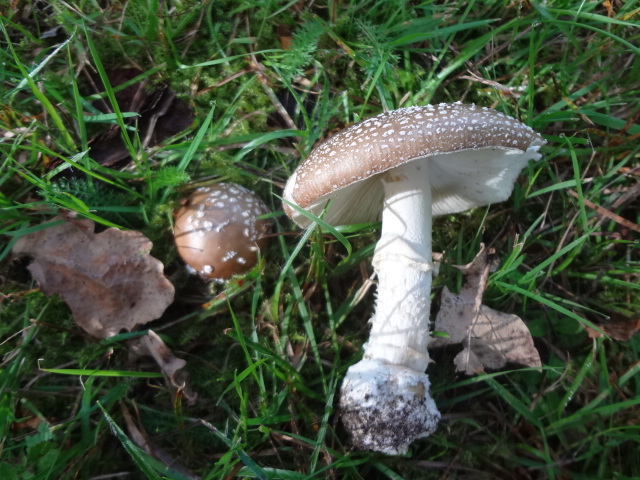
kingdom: Fungi
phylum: Basidiomycota
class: Agaricomycetes
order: Agaricales
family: Amanitaceae
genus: Amanita
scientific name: Amanita pantherina
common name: panter-fluesvamp
